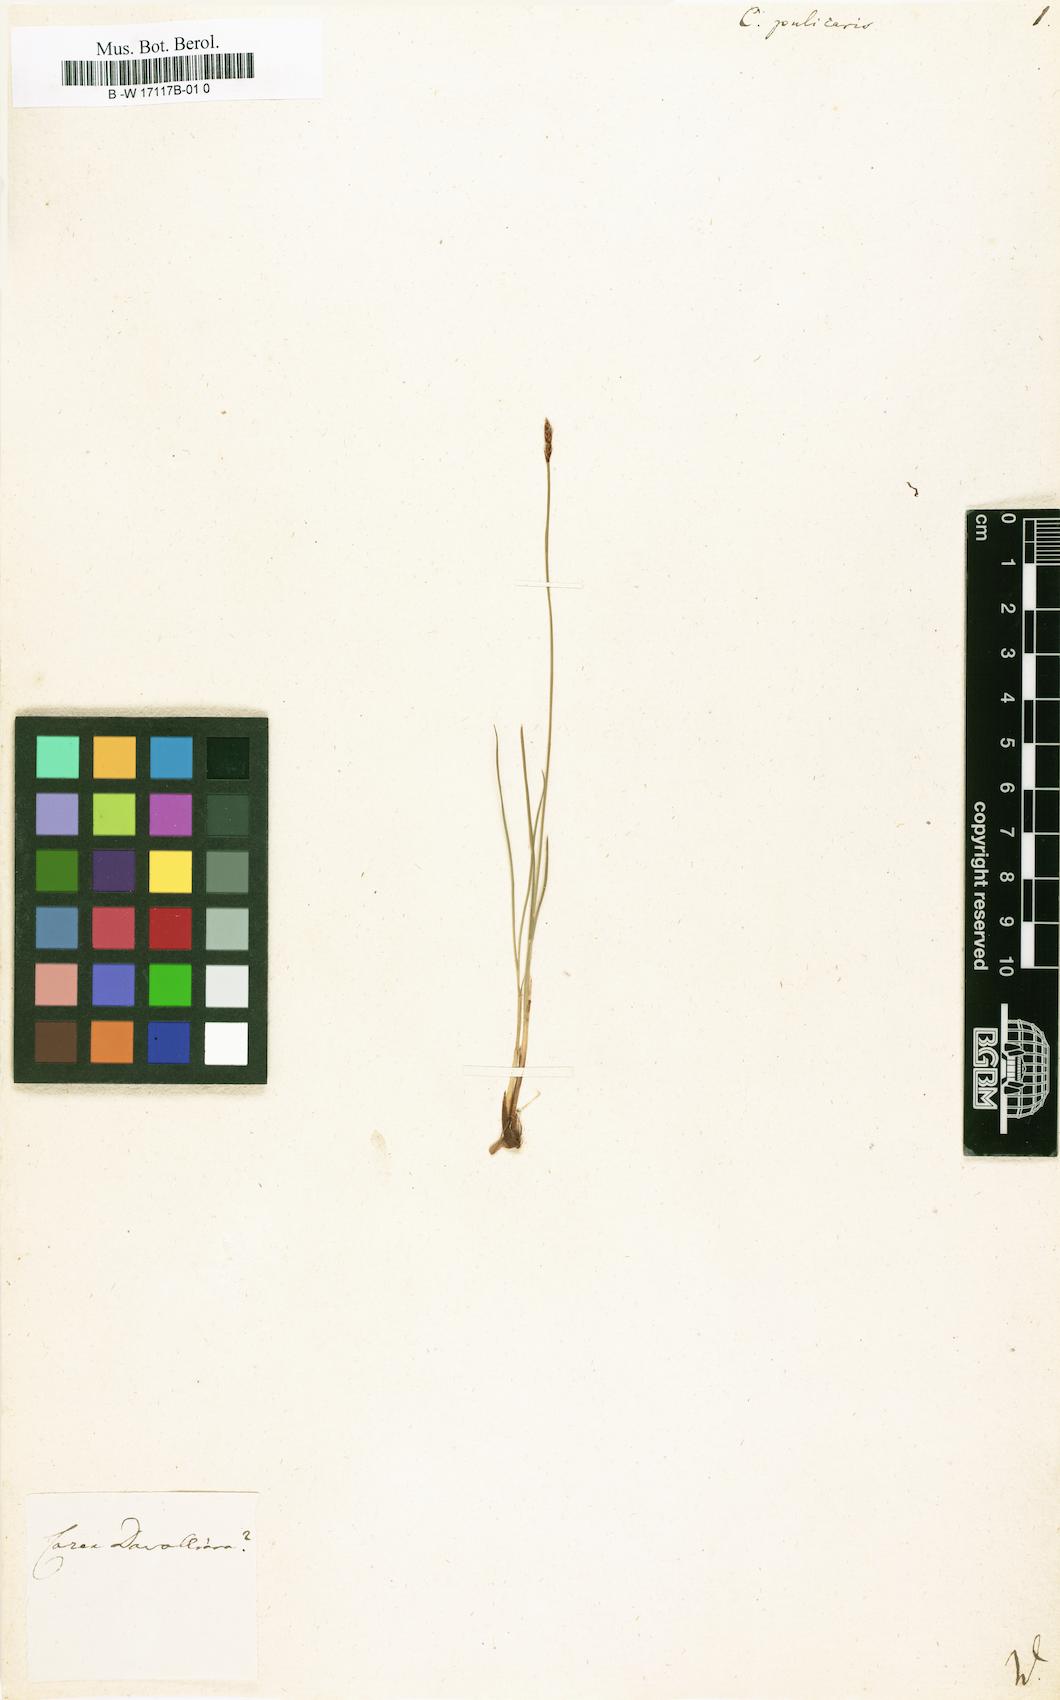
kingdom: Plantae
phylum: Tracheophyta
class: Liliopsida
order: Poales
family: Cyperaceae
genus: Carex
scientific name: Carex pulicaris
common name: Flea sedge
